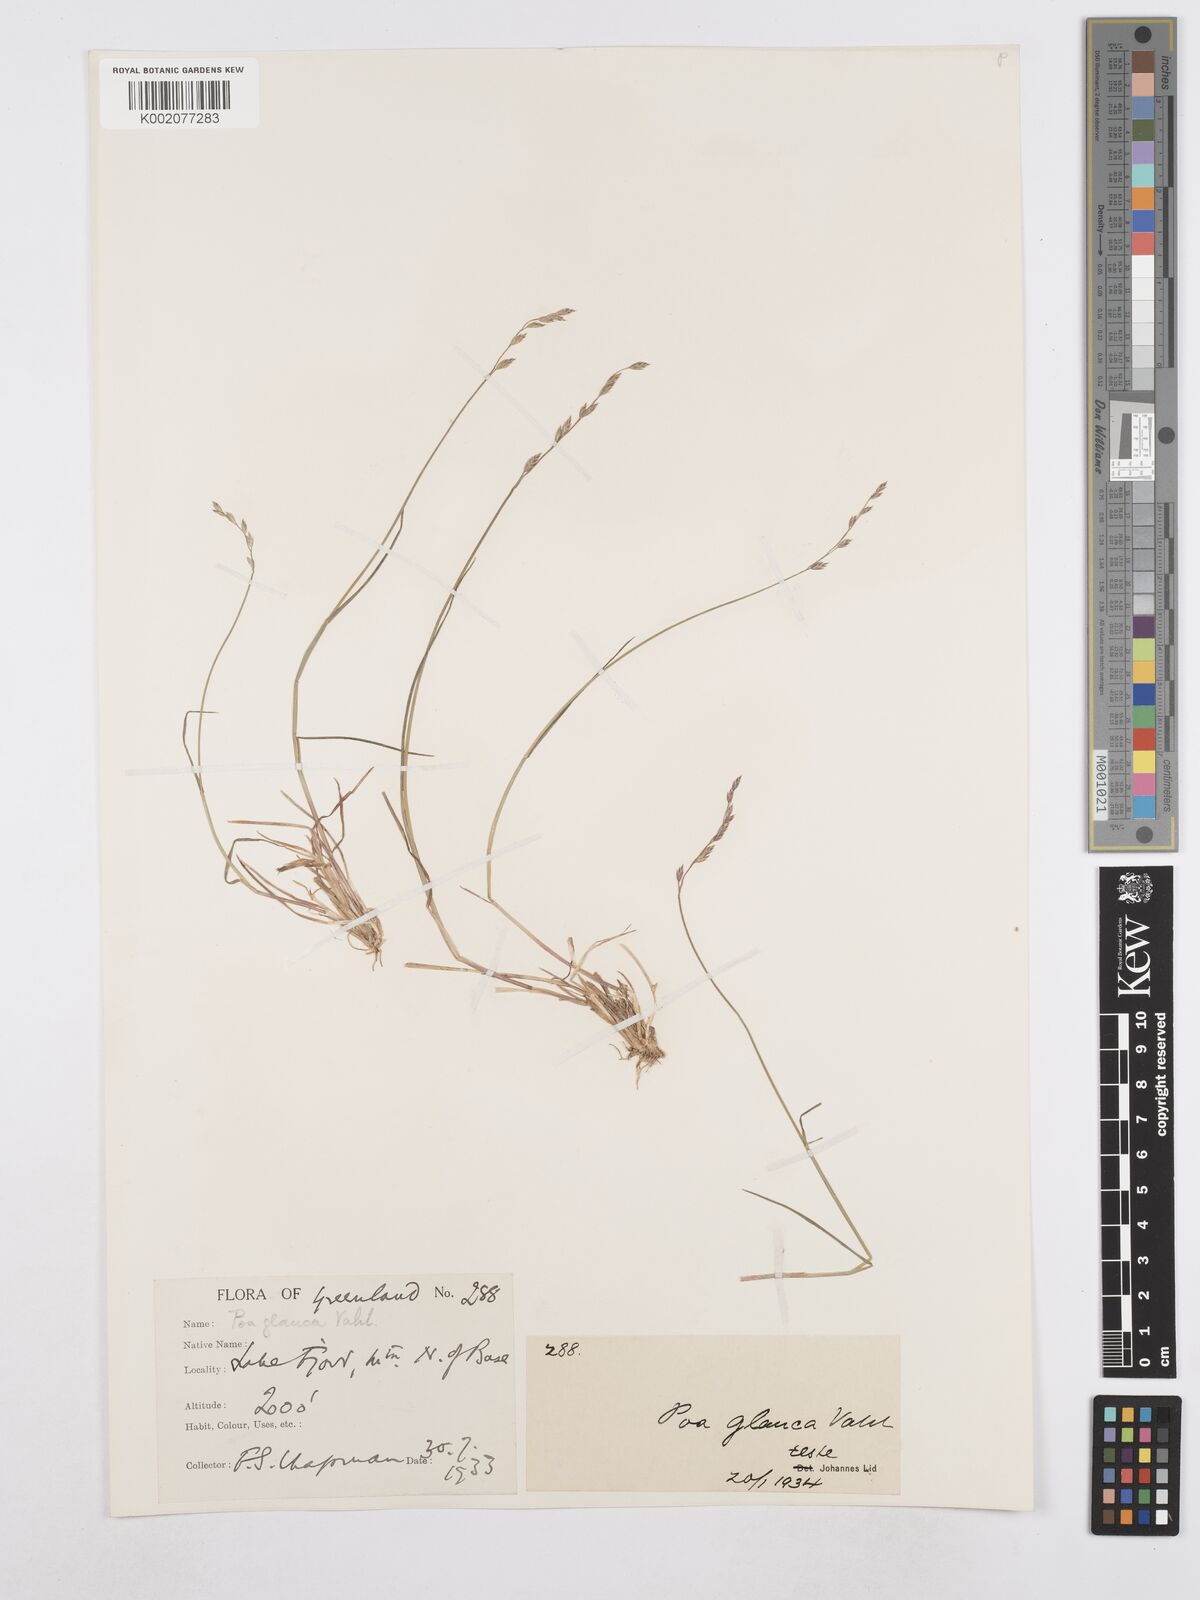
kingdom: Plantae
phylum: Tracheophyta
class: Liliopsida
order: Poales
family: Poaceae
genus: Poa
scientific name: Poa glauca
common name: Glaucous bluegrass
